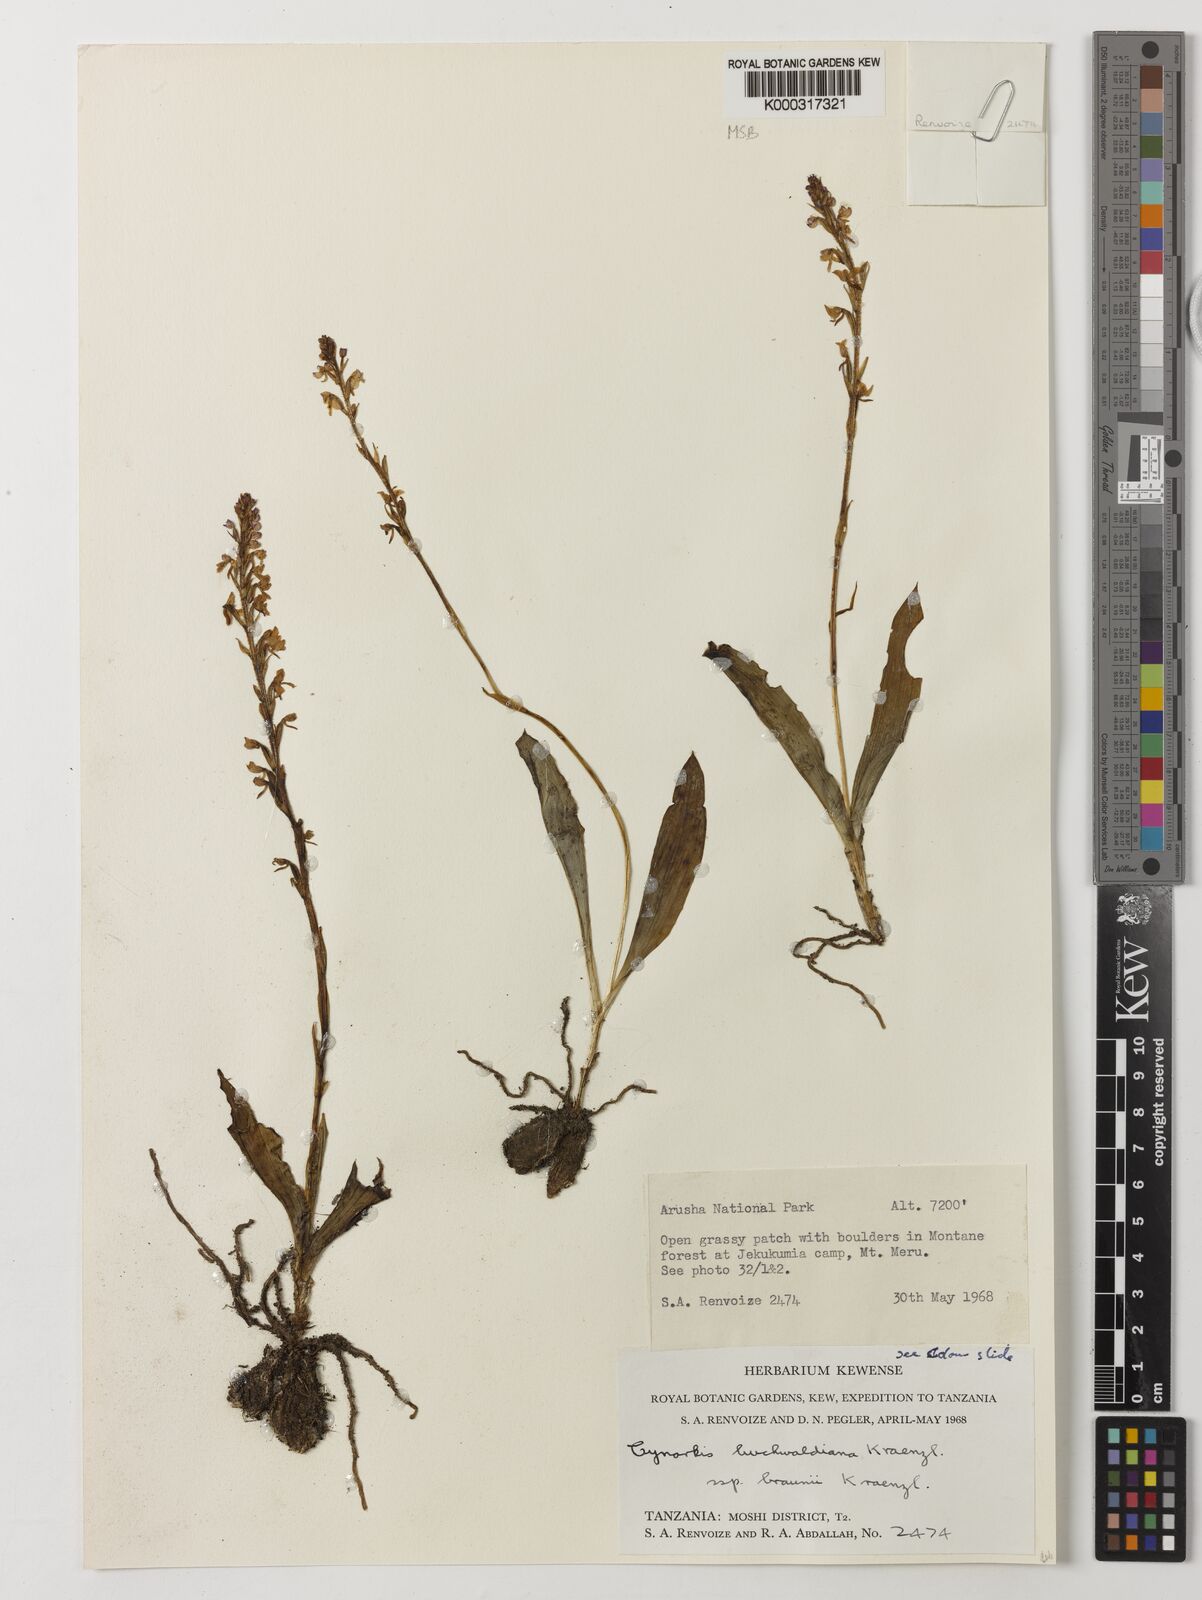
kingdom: Plantae
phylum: Tracheophyta
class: Liliopsida
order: Asparagales
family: Orchidaceae
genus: Cynorkis
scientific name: Cynorkis buchwaldiana
